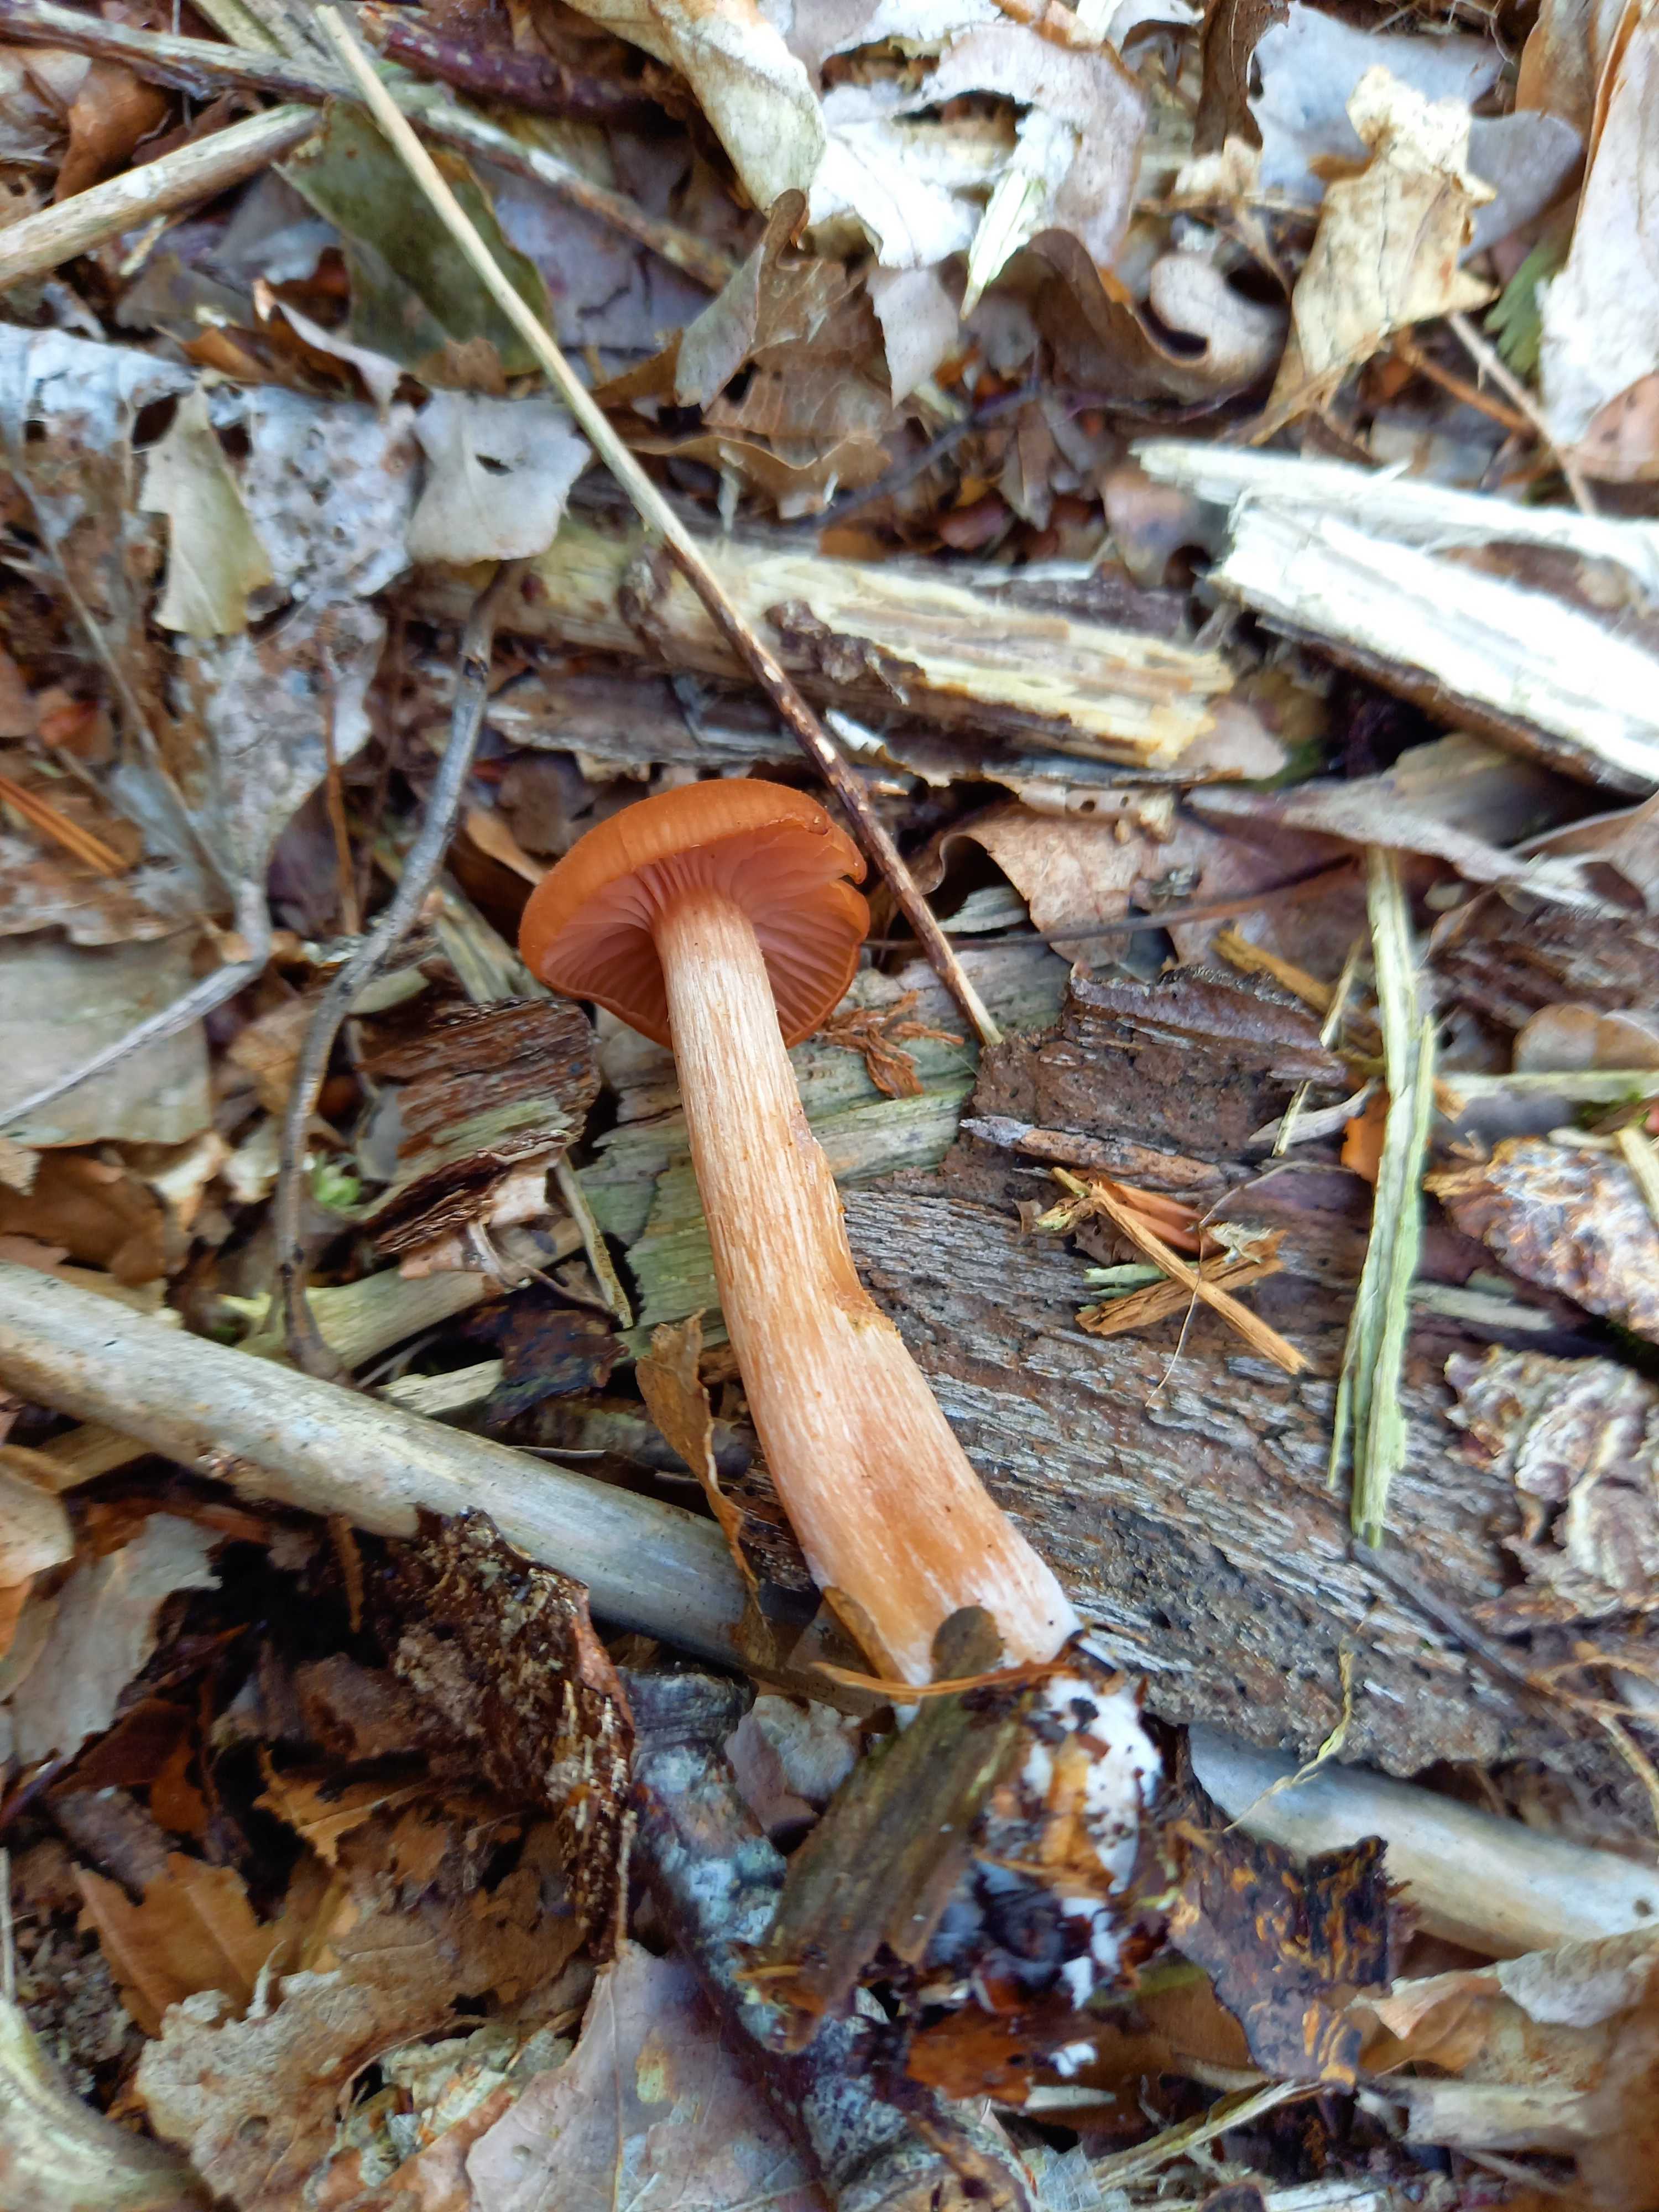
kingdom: Fungi
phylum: Basidiomycota
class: Agaricomycetes
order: Agaricales
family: Hydnangiaceae
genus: Laccaria
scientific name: Laccaria laccata
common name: rød ametysthat
